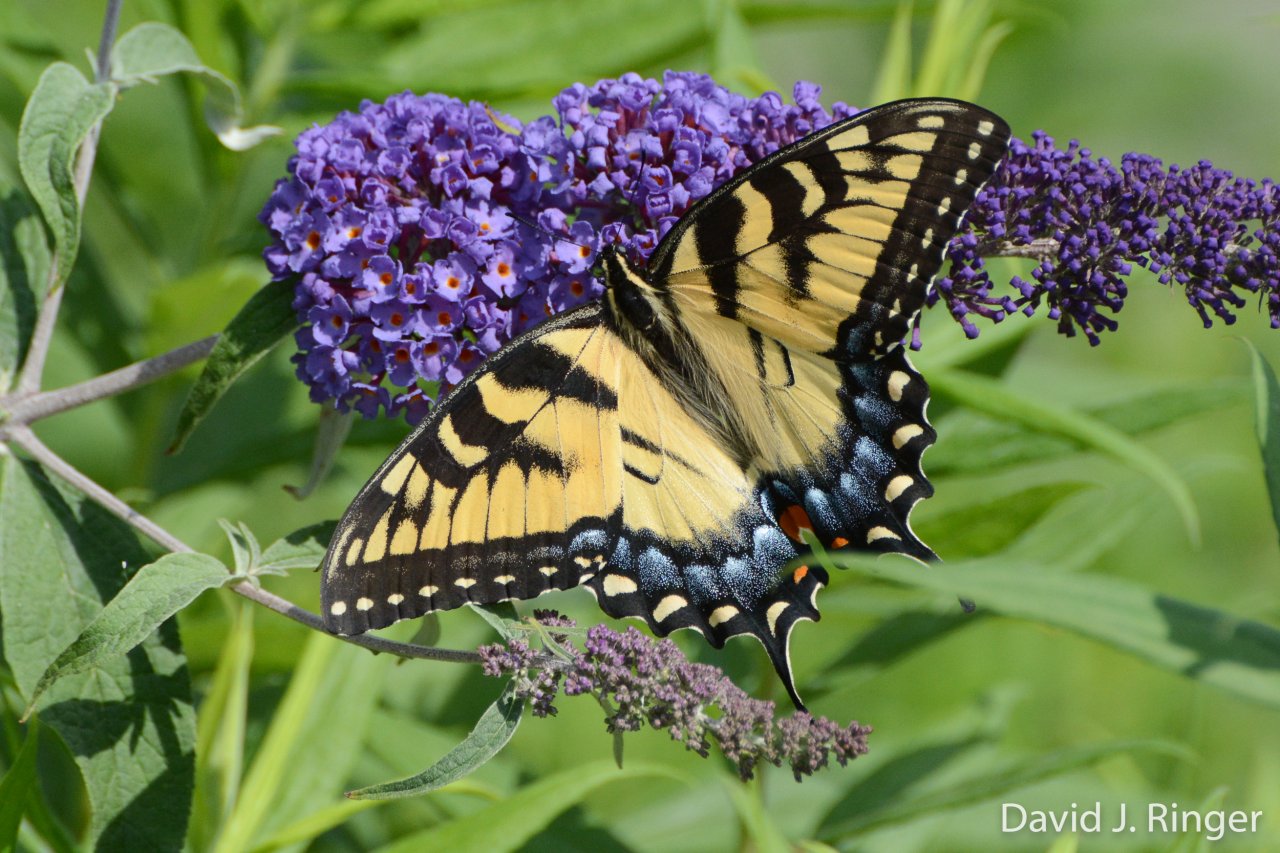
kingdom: Animalia
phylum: Arthropoda
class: Insecta
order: Lepidoptera
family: Papilionidae
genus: Pterourus
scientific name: Pterourus glaucus
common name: Eastern Tiger Swallowtail
